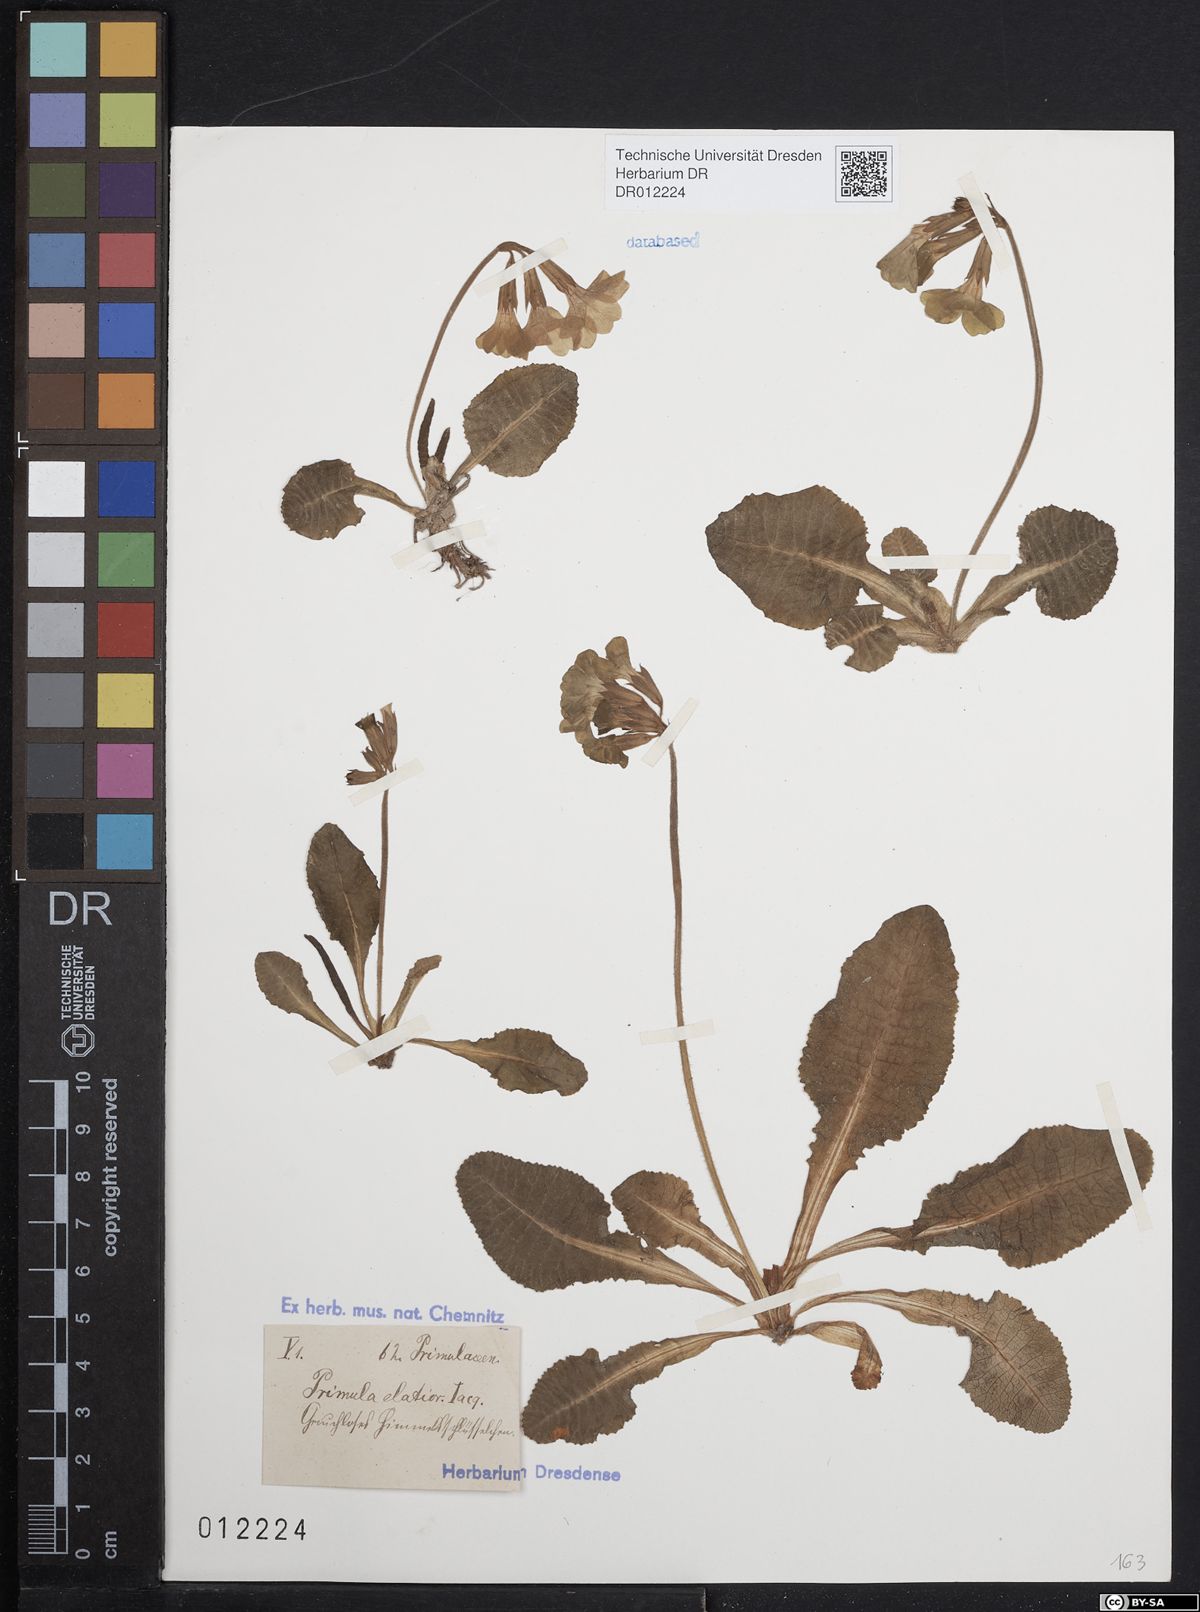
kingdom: Plantae
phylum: Tracheophyta
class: Magnoliopsida
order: Ericales
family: Primulaceae
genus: Primula
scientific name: Primula elatior
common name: Oxlip
